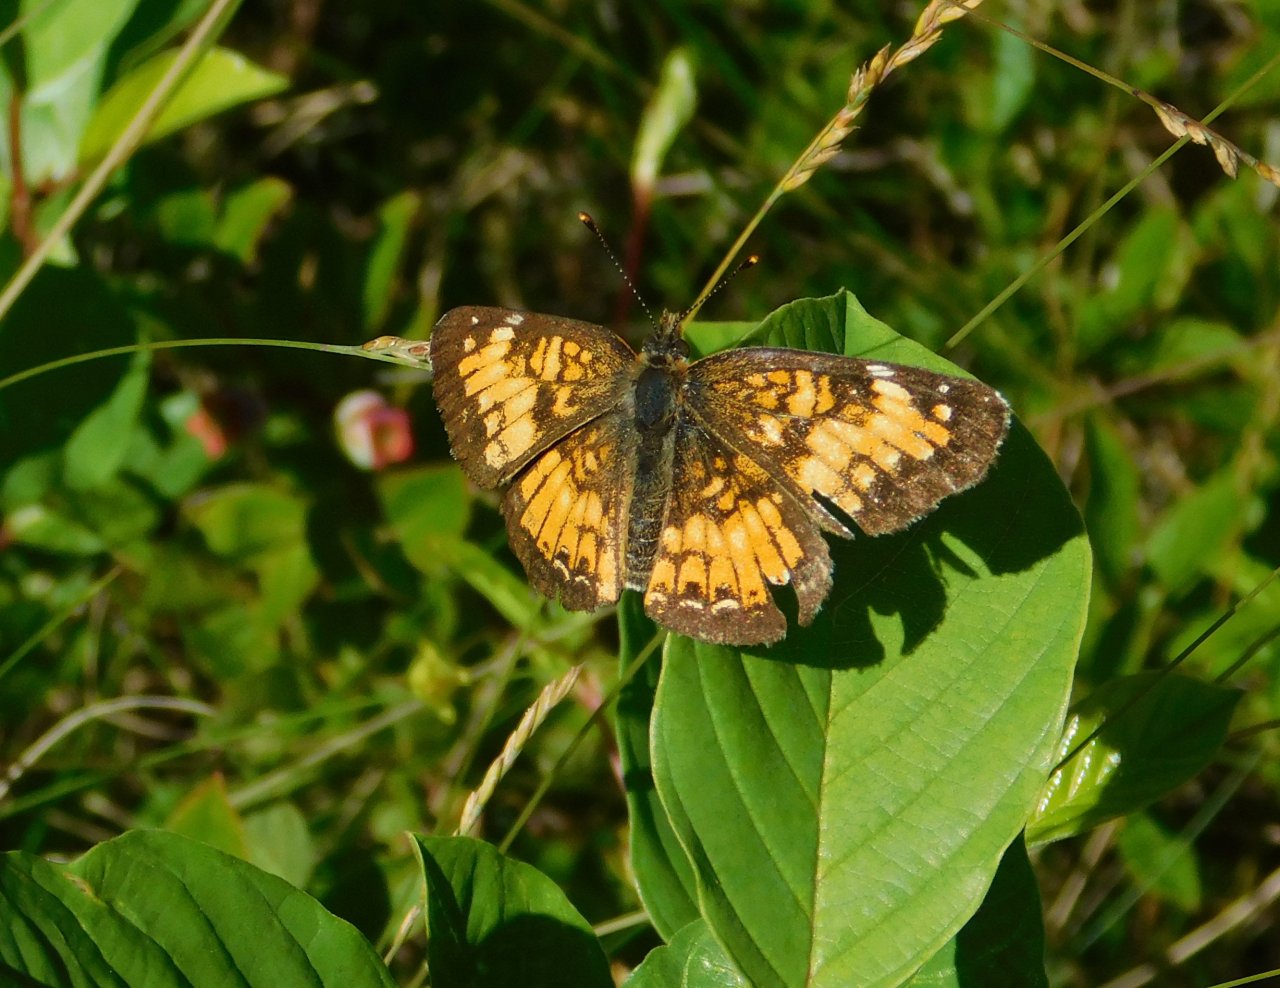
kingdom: Animalia
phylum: Arthropoda
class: Insecta
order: Lepidoptera
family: Nymphalidae
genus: Chlosyne
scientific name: Chlosyne harrisii
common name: Harris's Checkerspot
